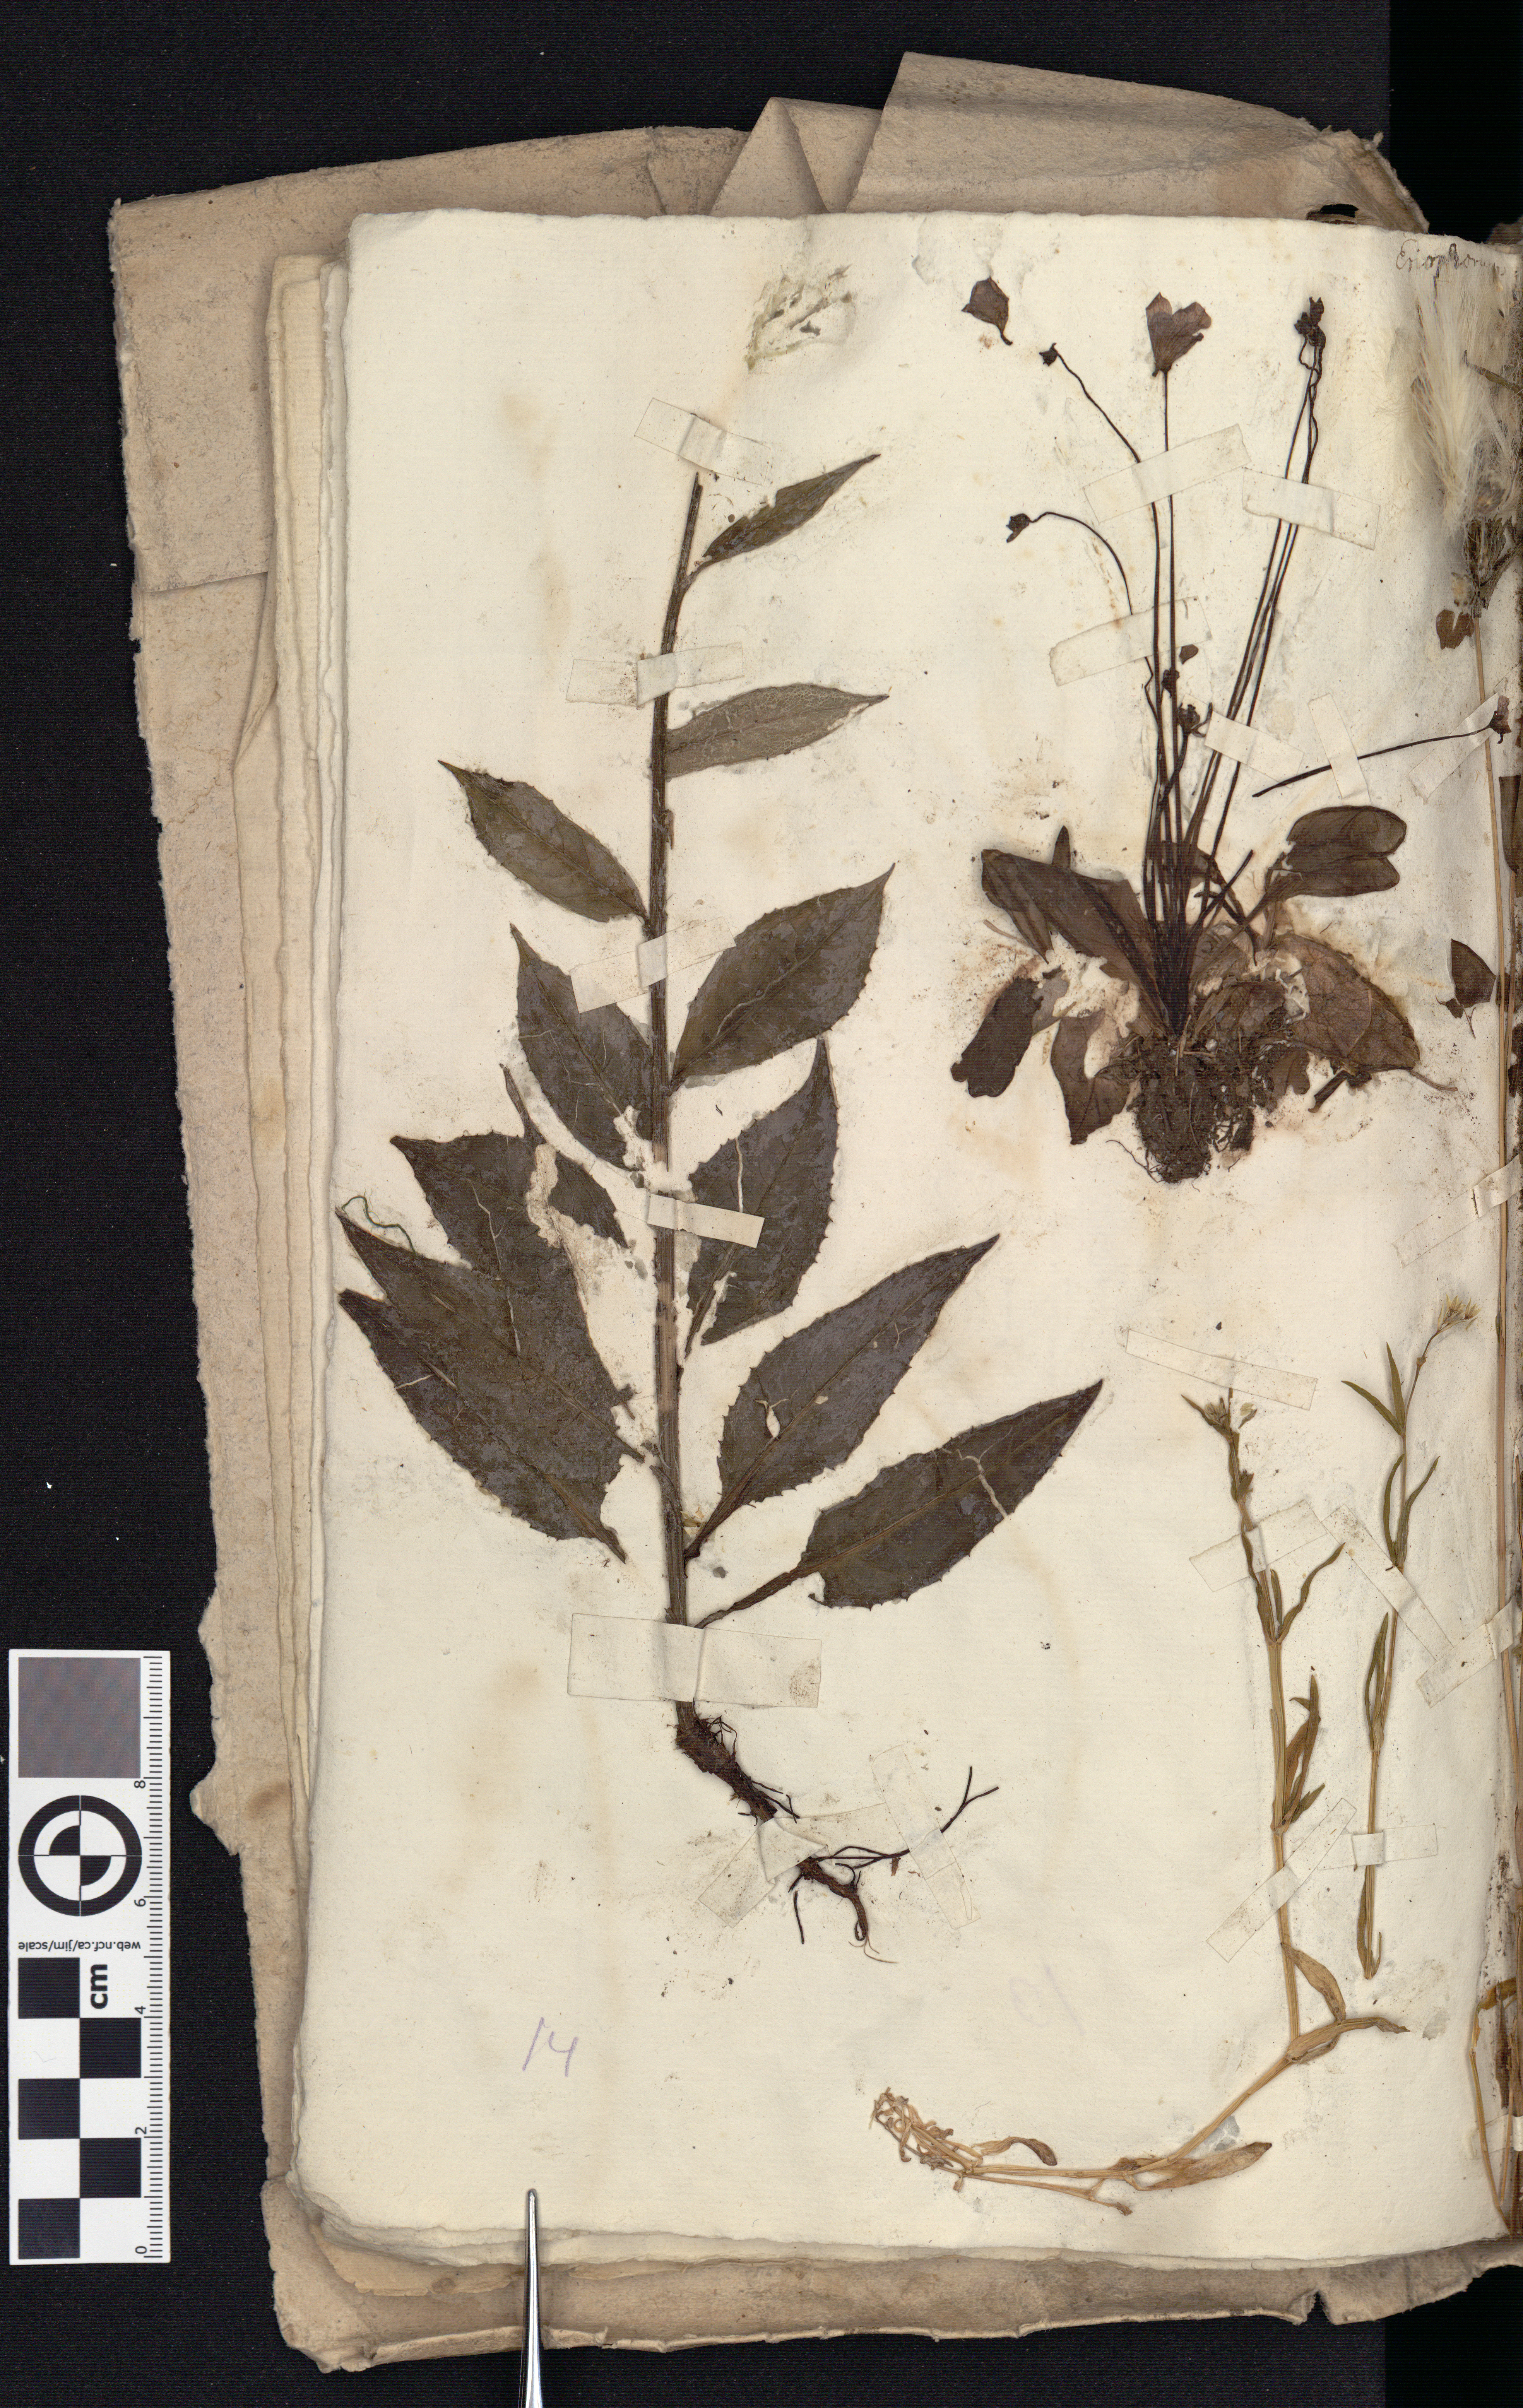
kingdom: Plantae
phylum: Tracheophyta
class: Liliopsida
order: Poales
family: Cyperaceae
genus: Eriophorum
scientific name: Eriophorum angustifolium
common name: Common cottongrass
